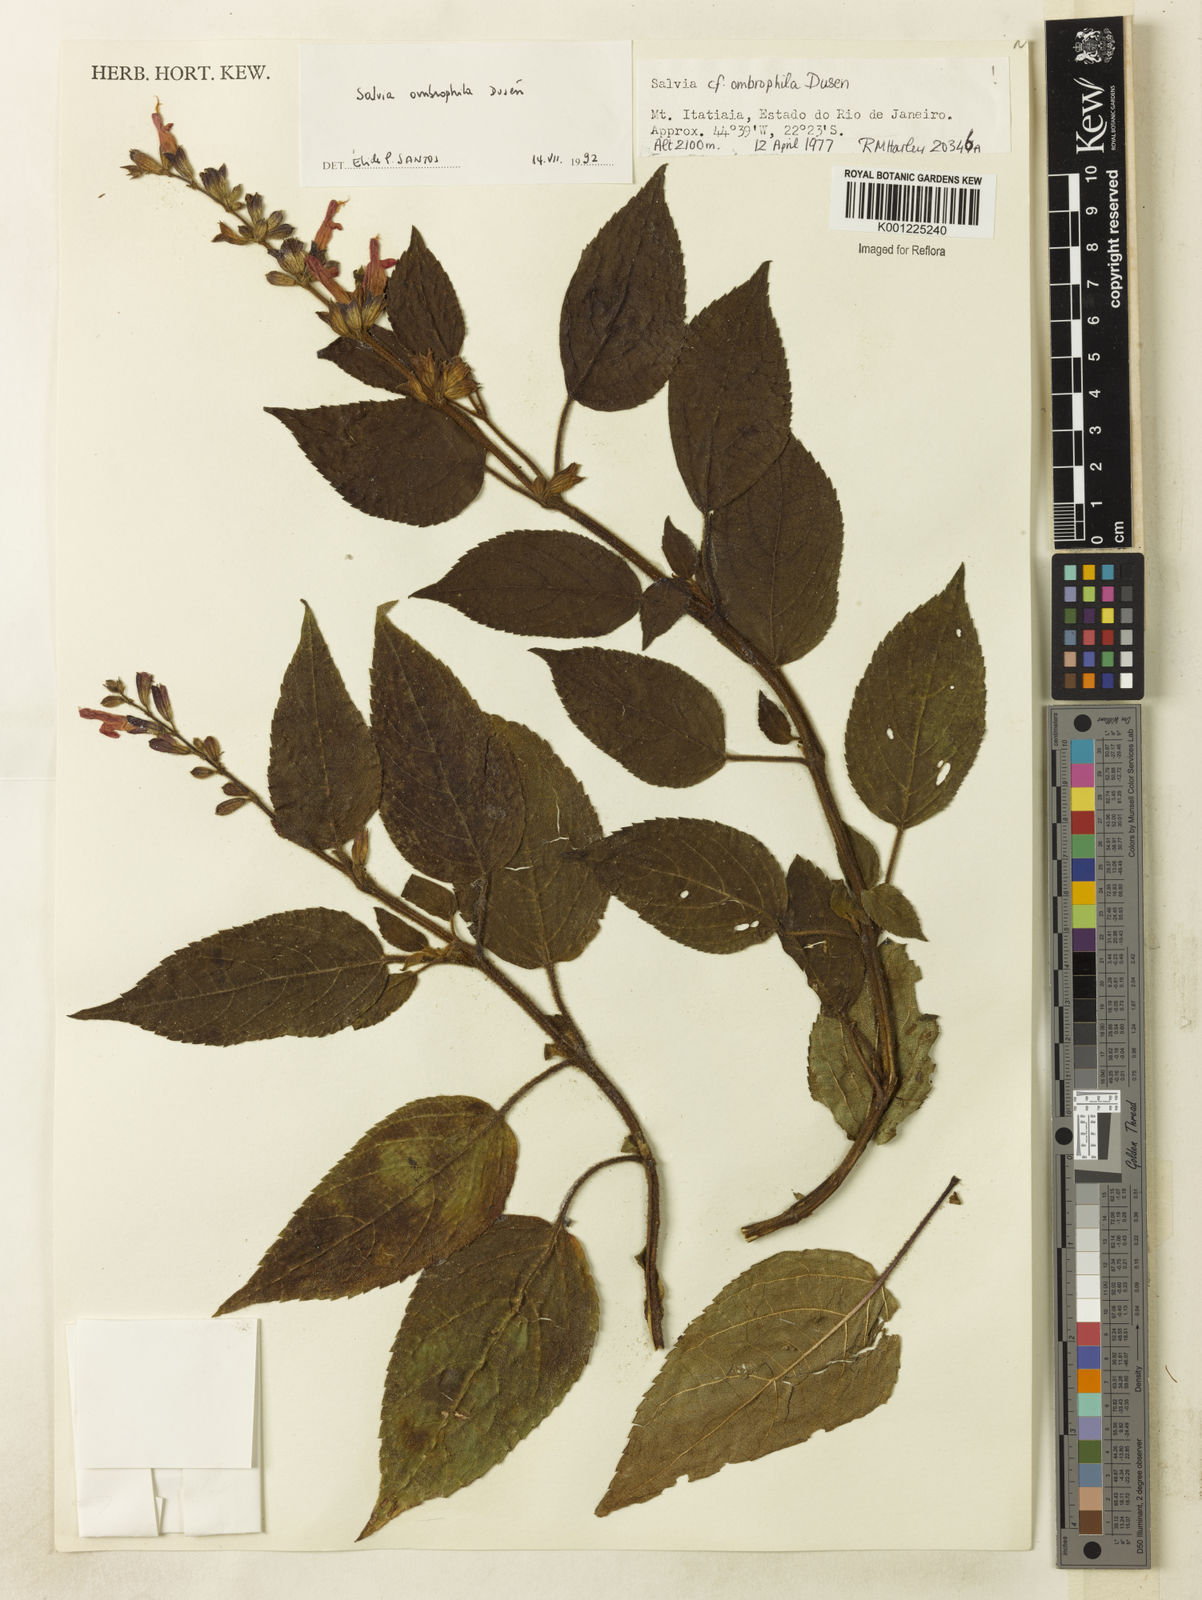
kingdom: Plantae
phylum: Tracheophyta
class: Magnoliopsida
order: Lamiales
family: Lamiaceae
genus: Salvia
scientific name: Salvia
